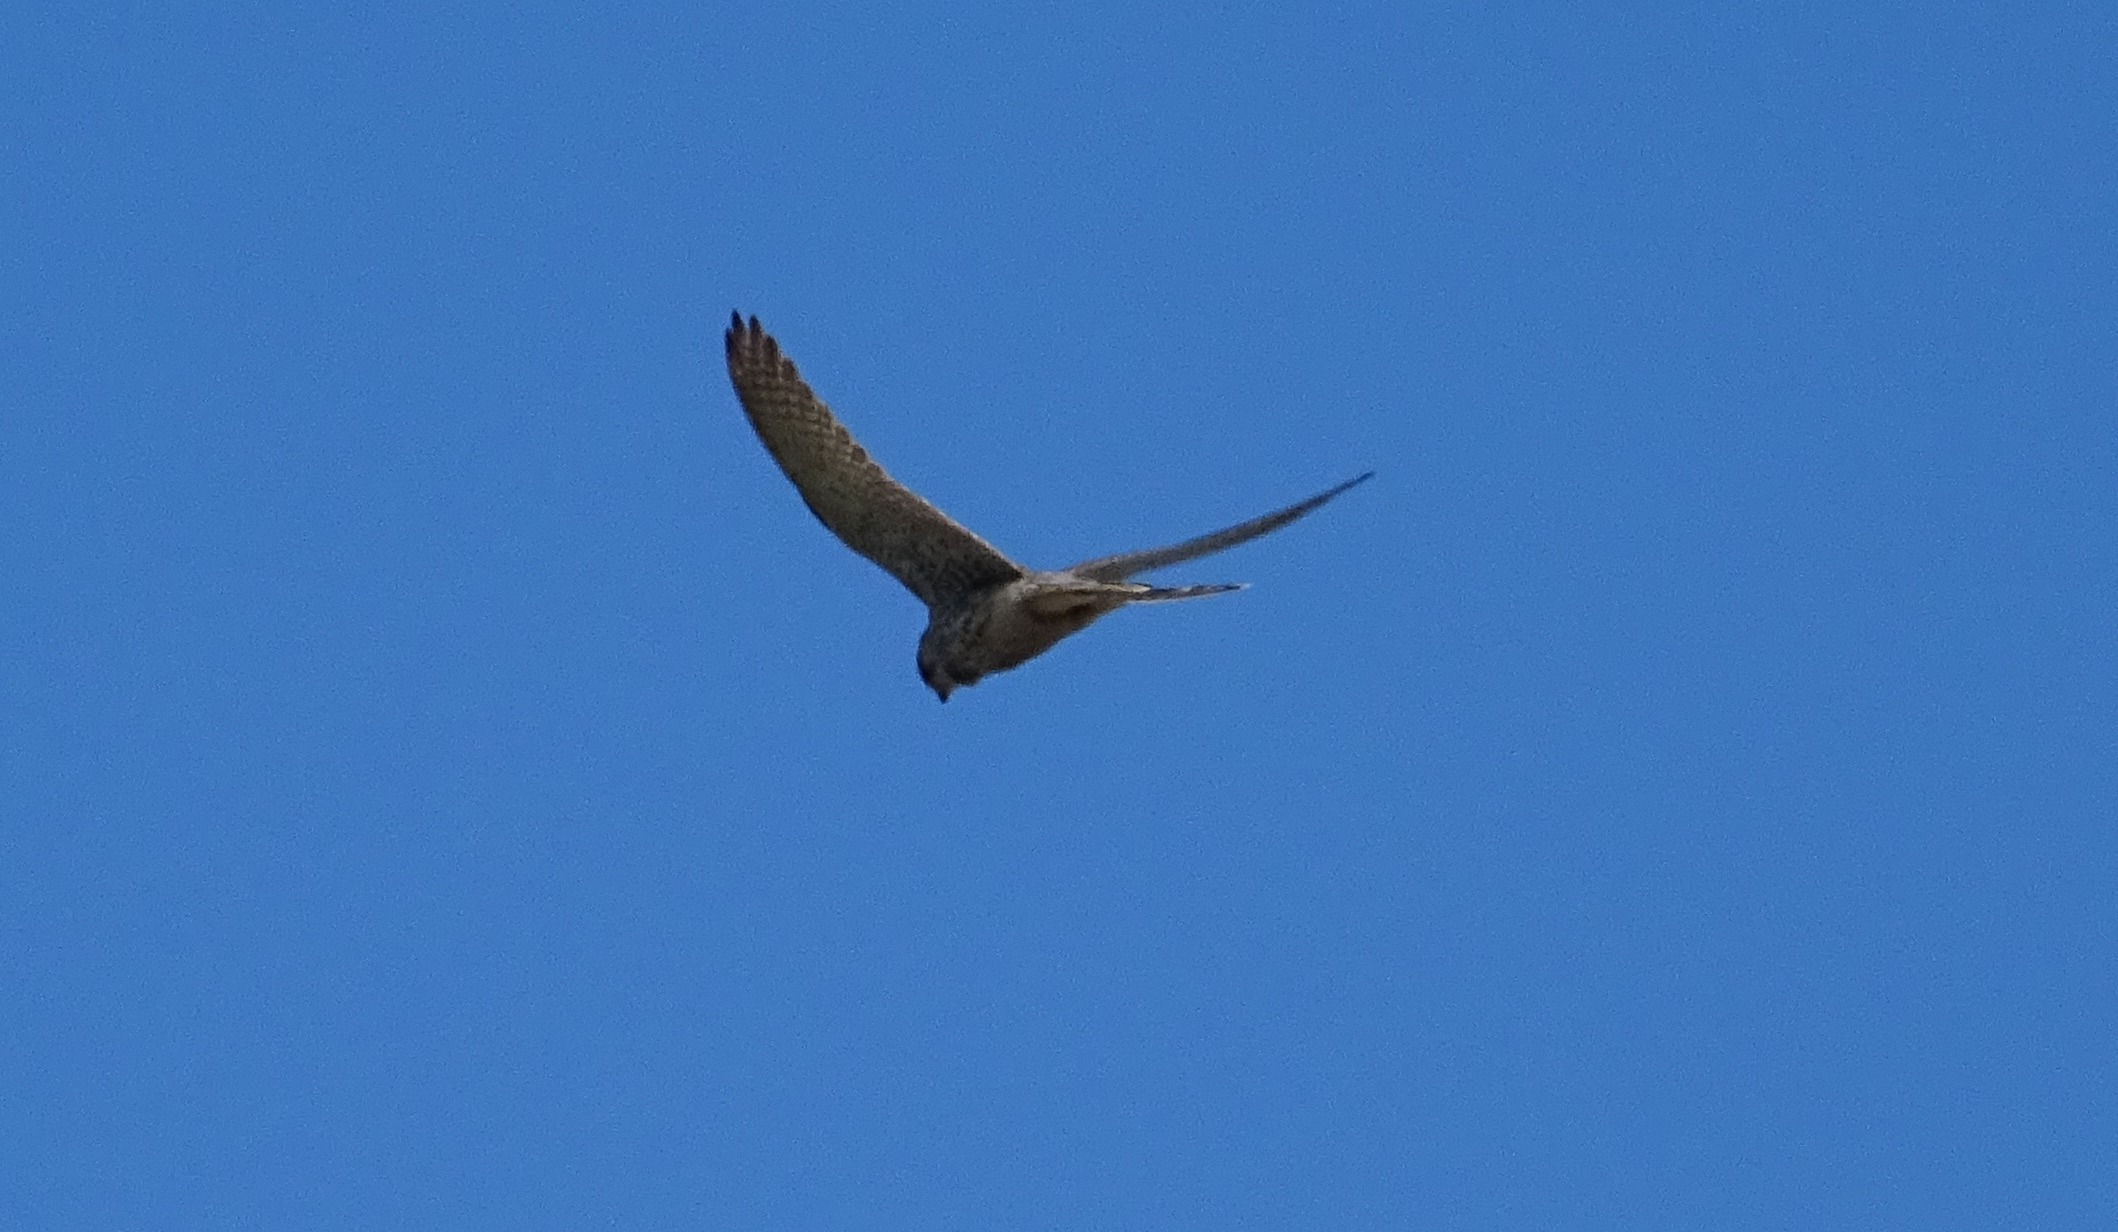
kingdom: Animalia
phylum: Chordata
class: Aves
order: Falconiformes
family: Falconidae
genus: Falco
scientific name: Falco tinnunculus
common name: Tårnfalk
